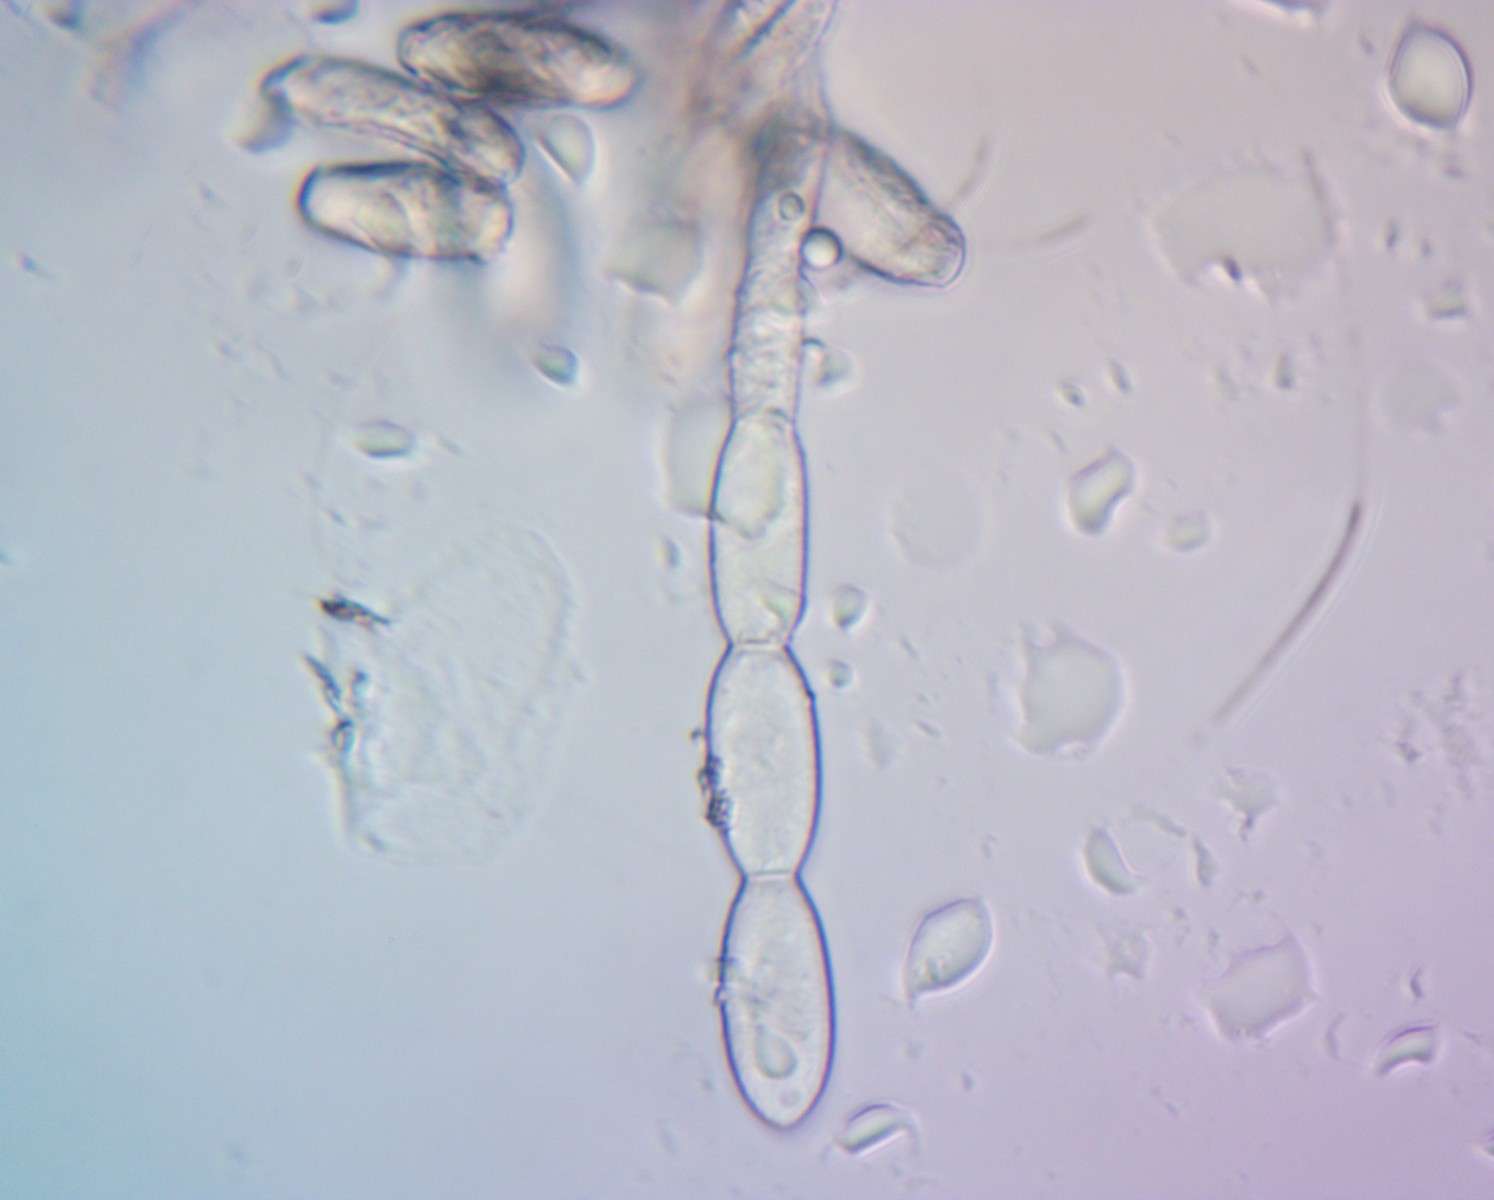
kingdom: Fungi
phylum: Ascomycota
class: Leotiomycetes
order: Helotiales
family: Erysiphaceae
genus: Blumeria
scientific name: Blumeria graminis
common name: græs-meldug
